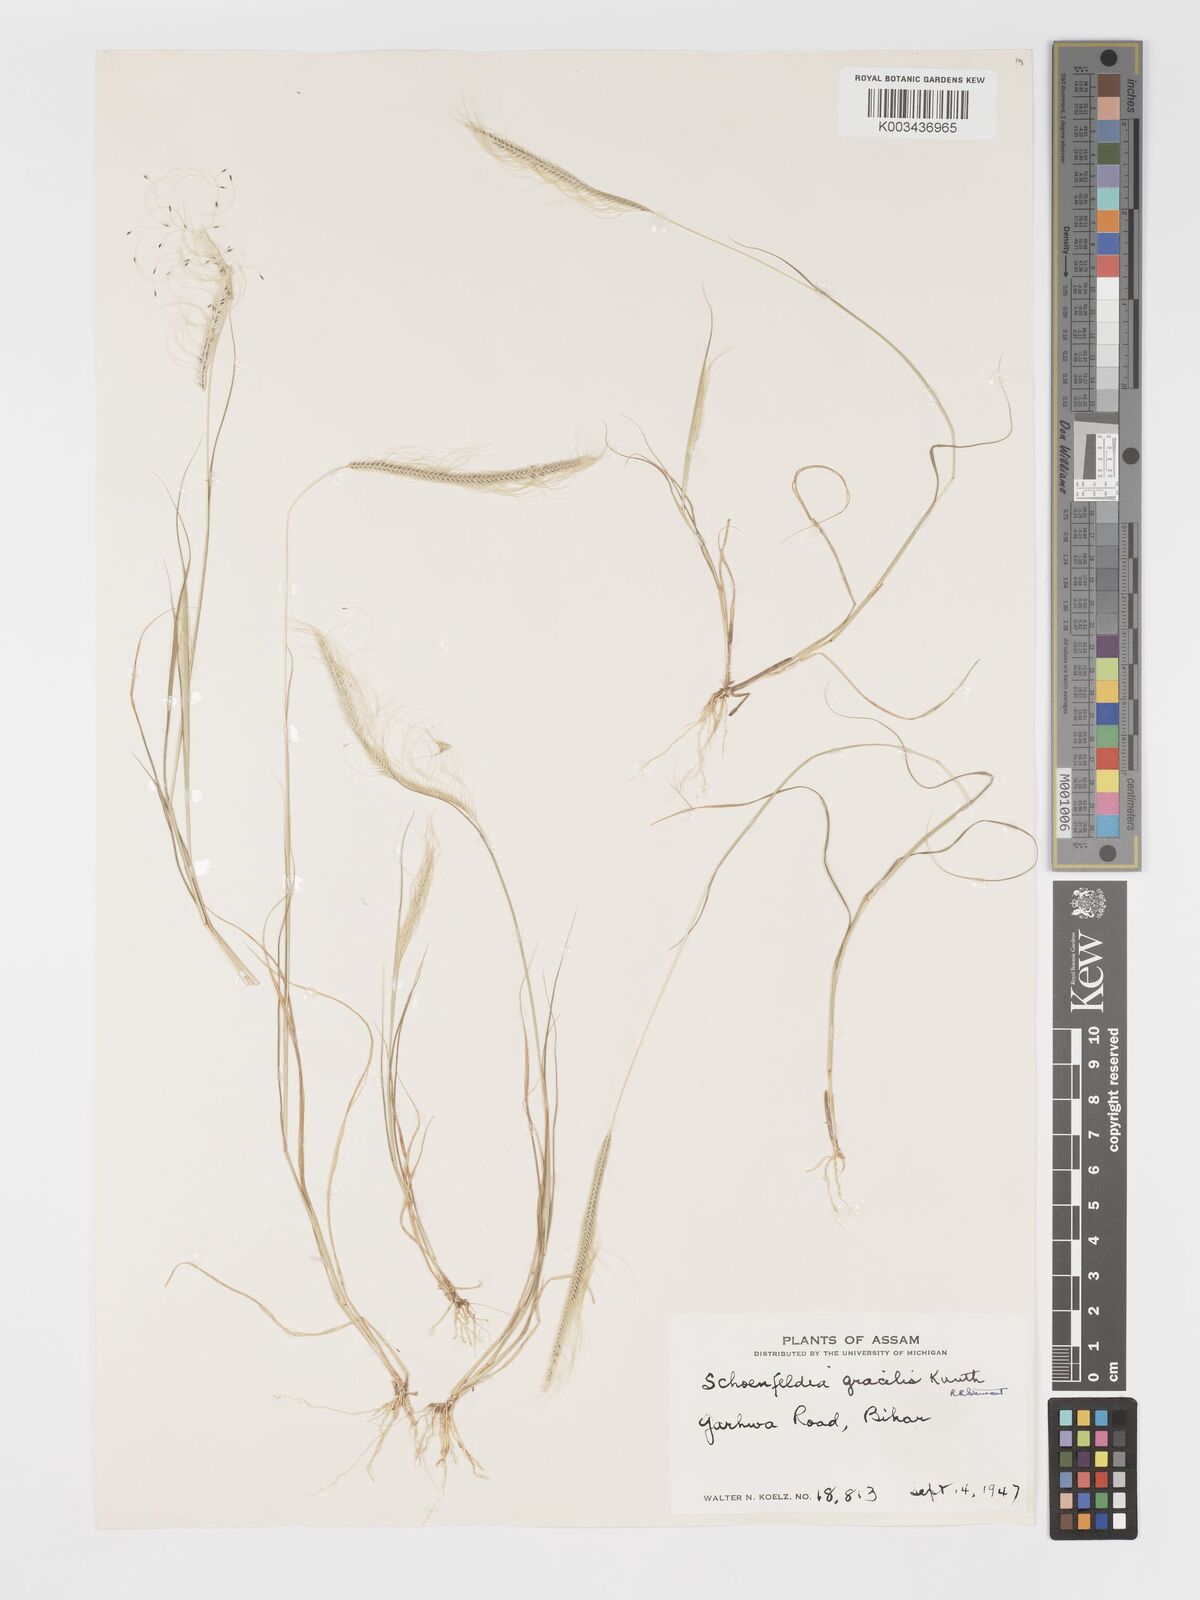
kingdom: Plantae
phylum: Tracheophyta
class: Liliopsida
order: Poales
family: Poaceae
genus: Schoenefeldia
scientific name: Schoenefeldia gracilis
